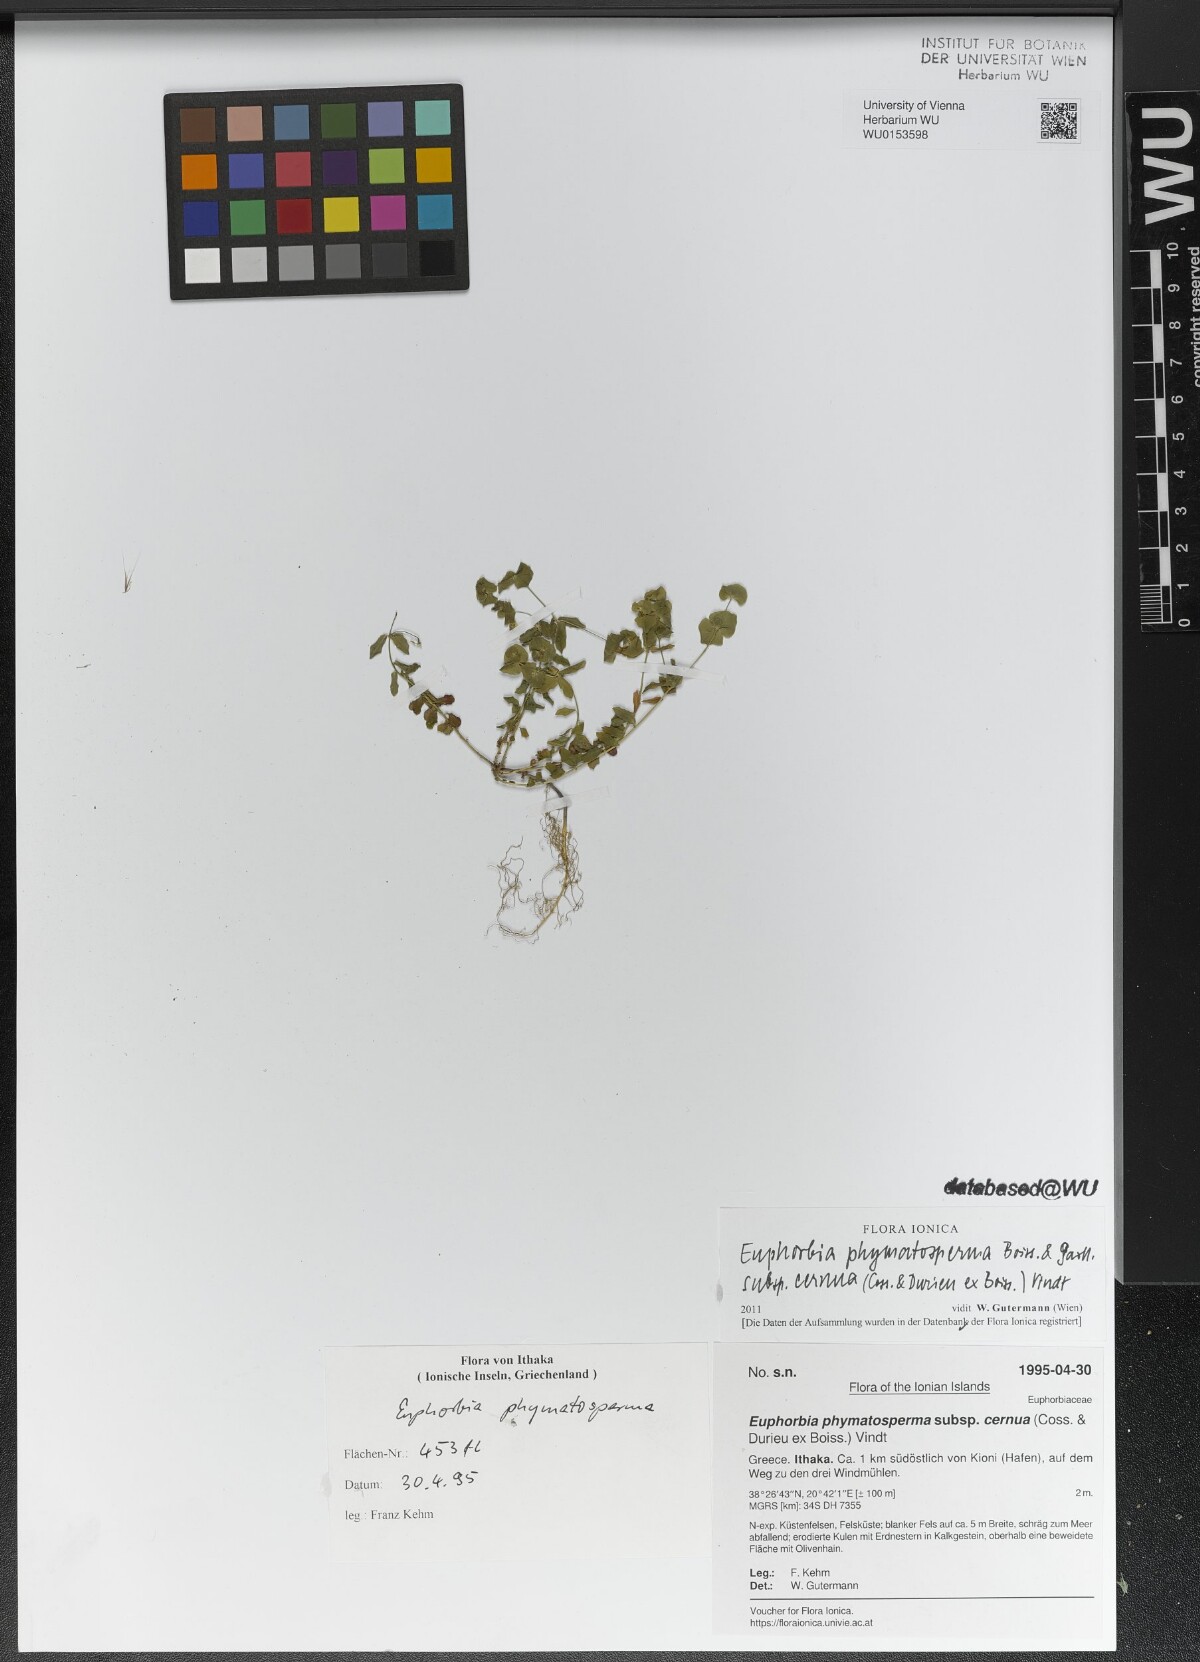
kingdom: Plantae
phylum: Tracheophyta
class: Magnoliopsida
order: Malpighiales
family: Euphorbiaceae
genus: Euphorbia
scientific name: Euphorbia phymatosperma
